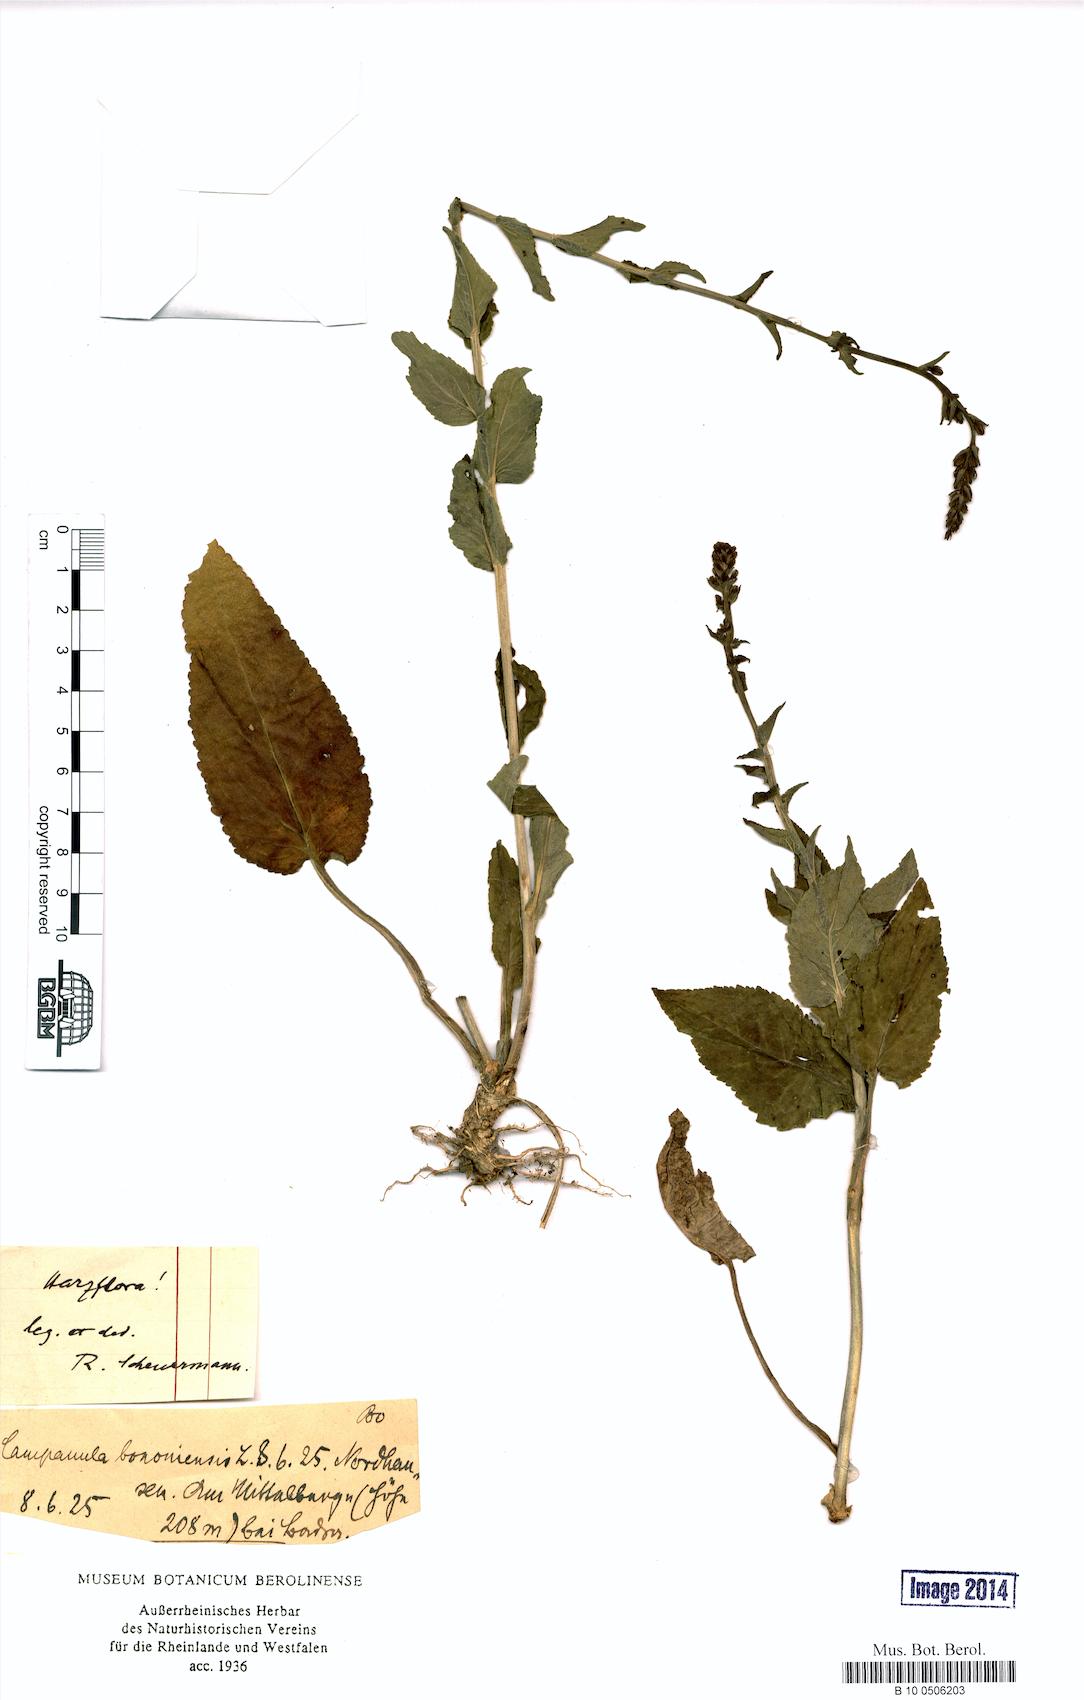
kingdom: Plantae
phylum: Tracheophyta
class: Magnoliopsida
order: Asterales
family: Campanulaceae
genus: Campanula
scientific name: Campanula bononiensis
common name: Pale bellflower
